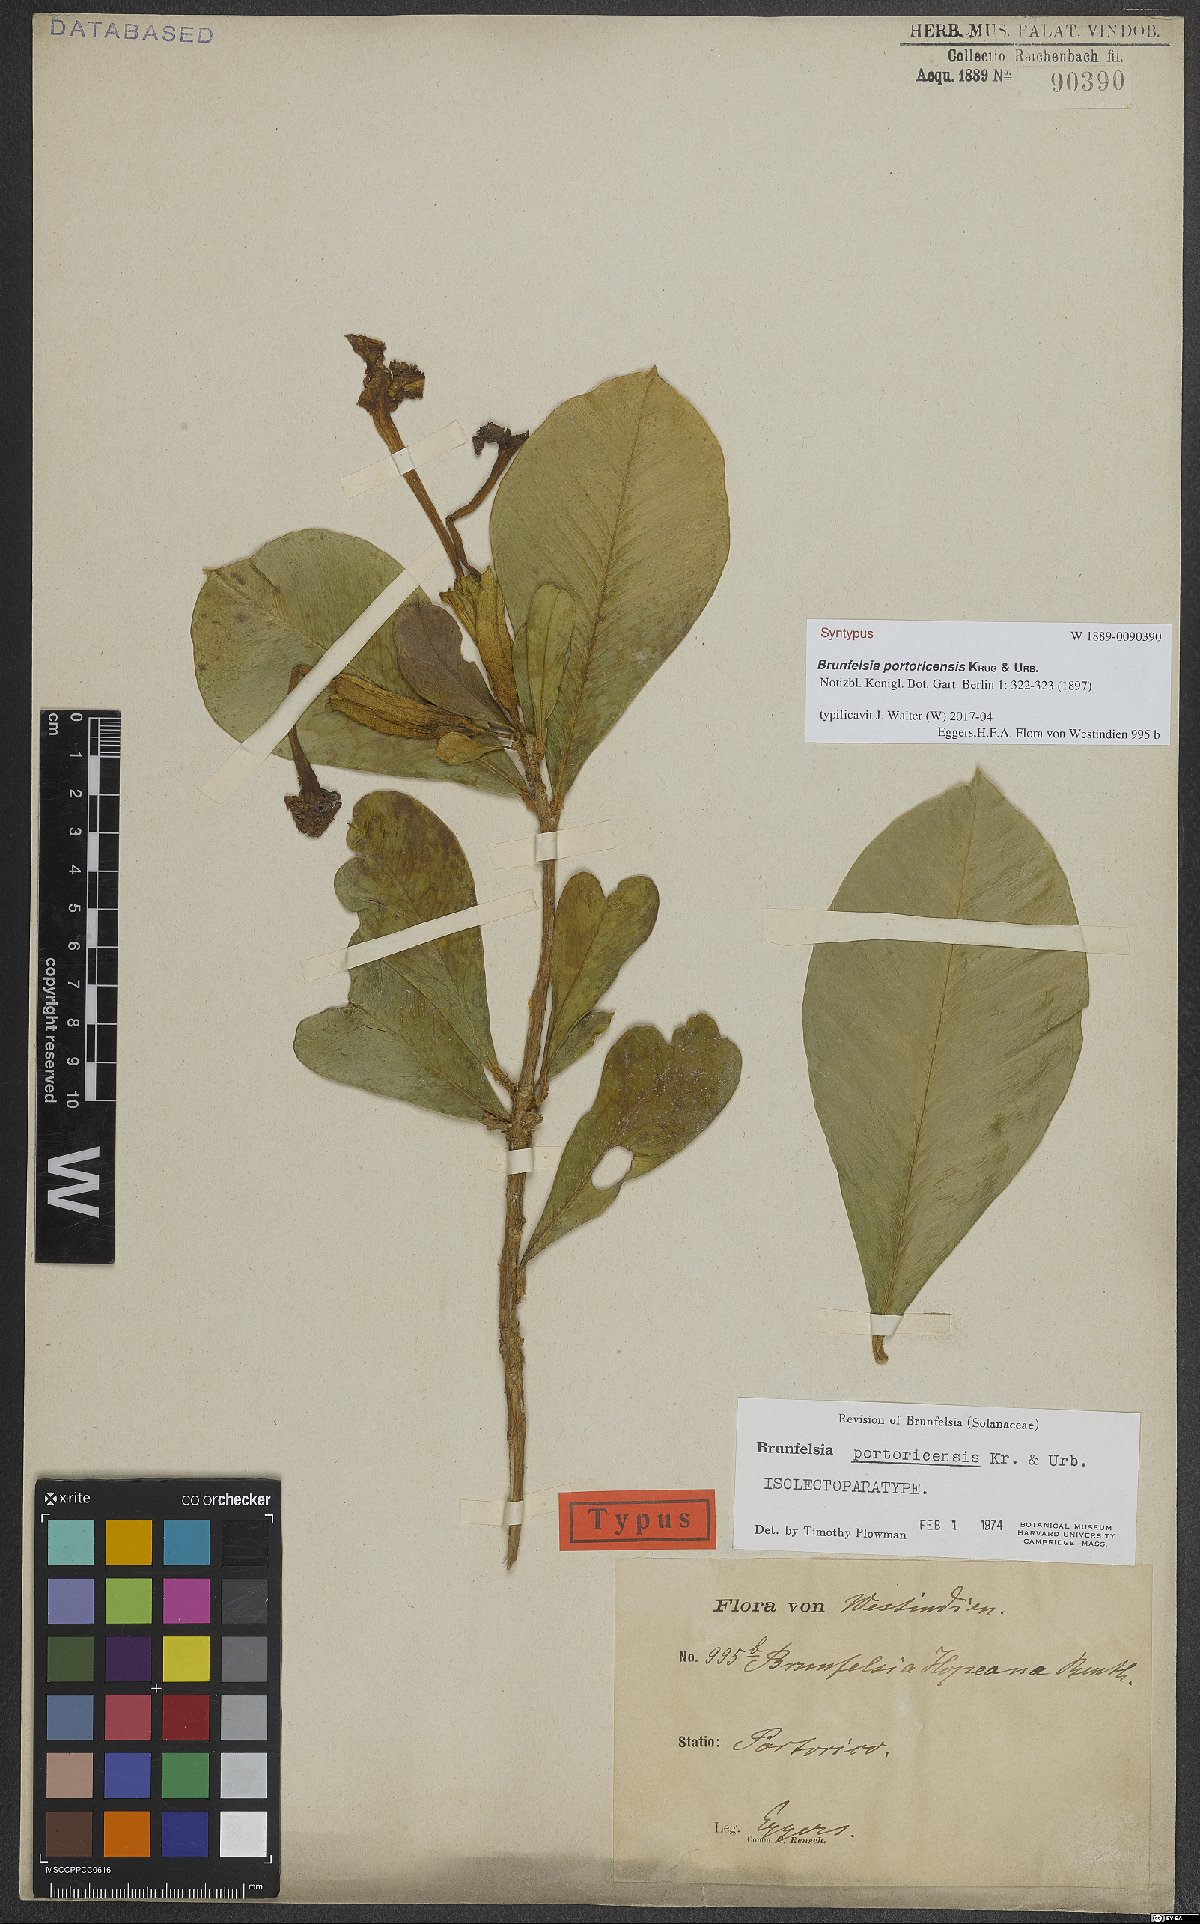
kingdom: Plantae
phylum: Tracheophyta
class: Magnoliopsida
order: Solanales
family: Solanaceae
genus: Brunfelsia
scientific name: Brunfelsia portoricensis
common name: Puerto rico raintree
